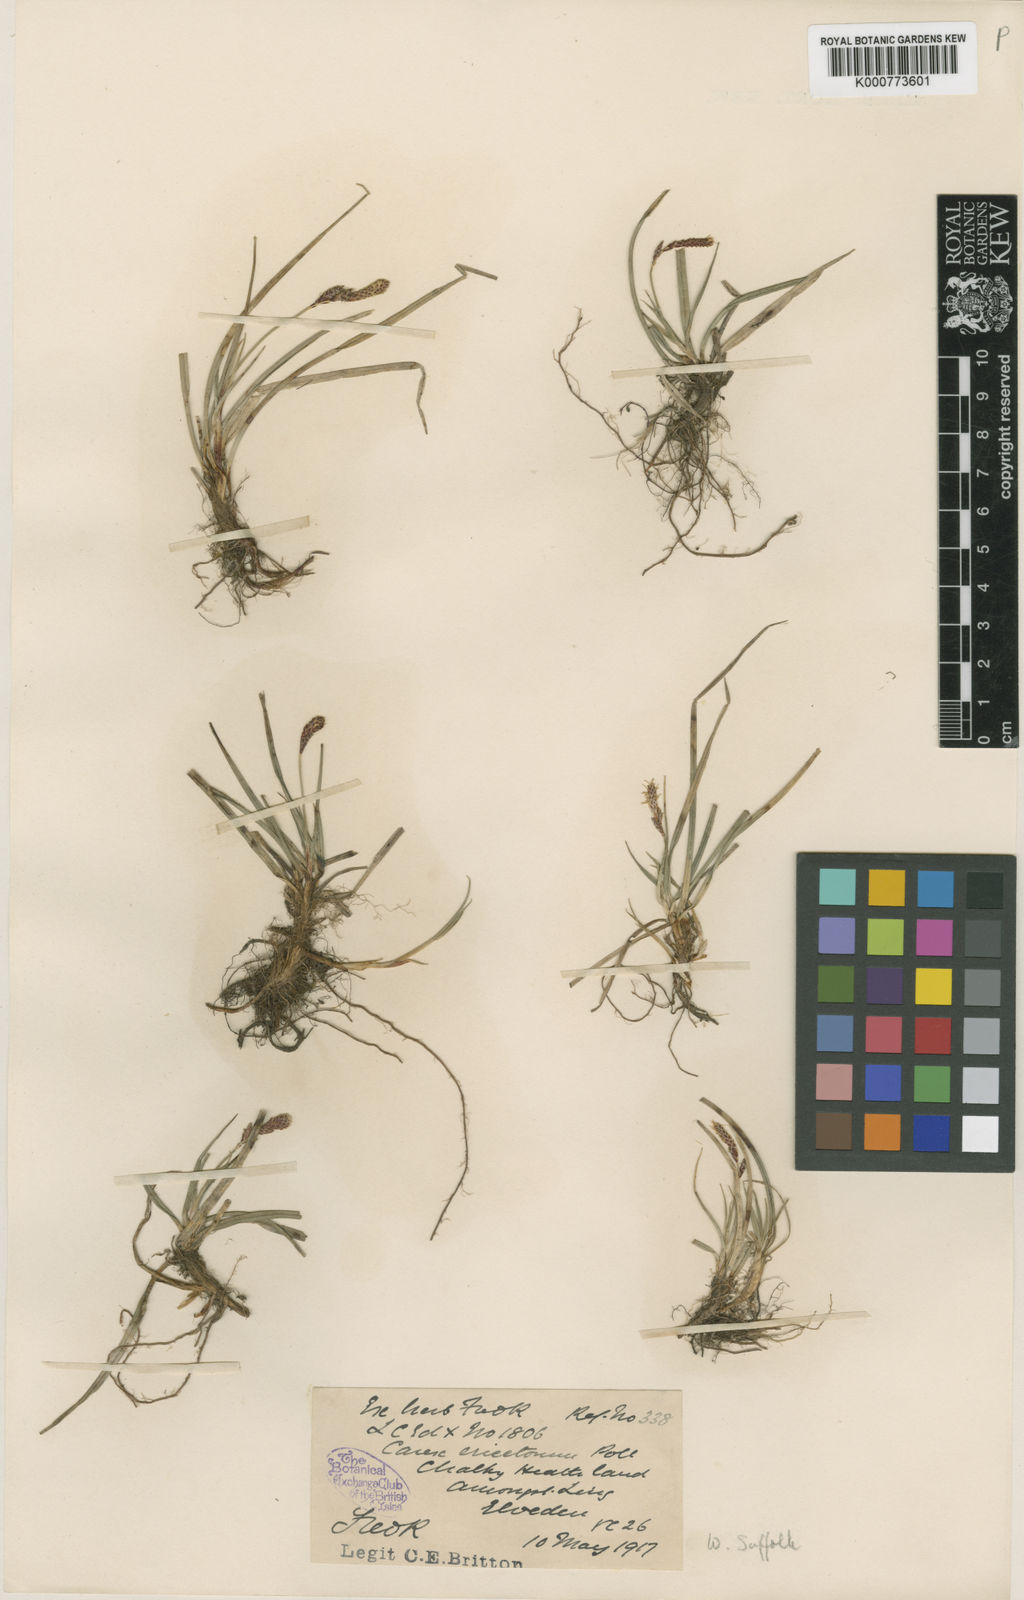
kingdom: Plantae
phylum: Tracheophyta
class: Liliopsida
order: Poales
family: Cyperaceae
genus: Carex
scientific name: Carex ericetorum
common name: Rare spring-sedge
